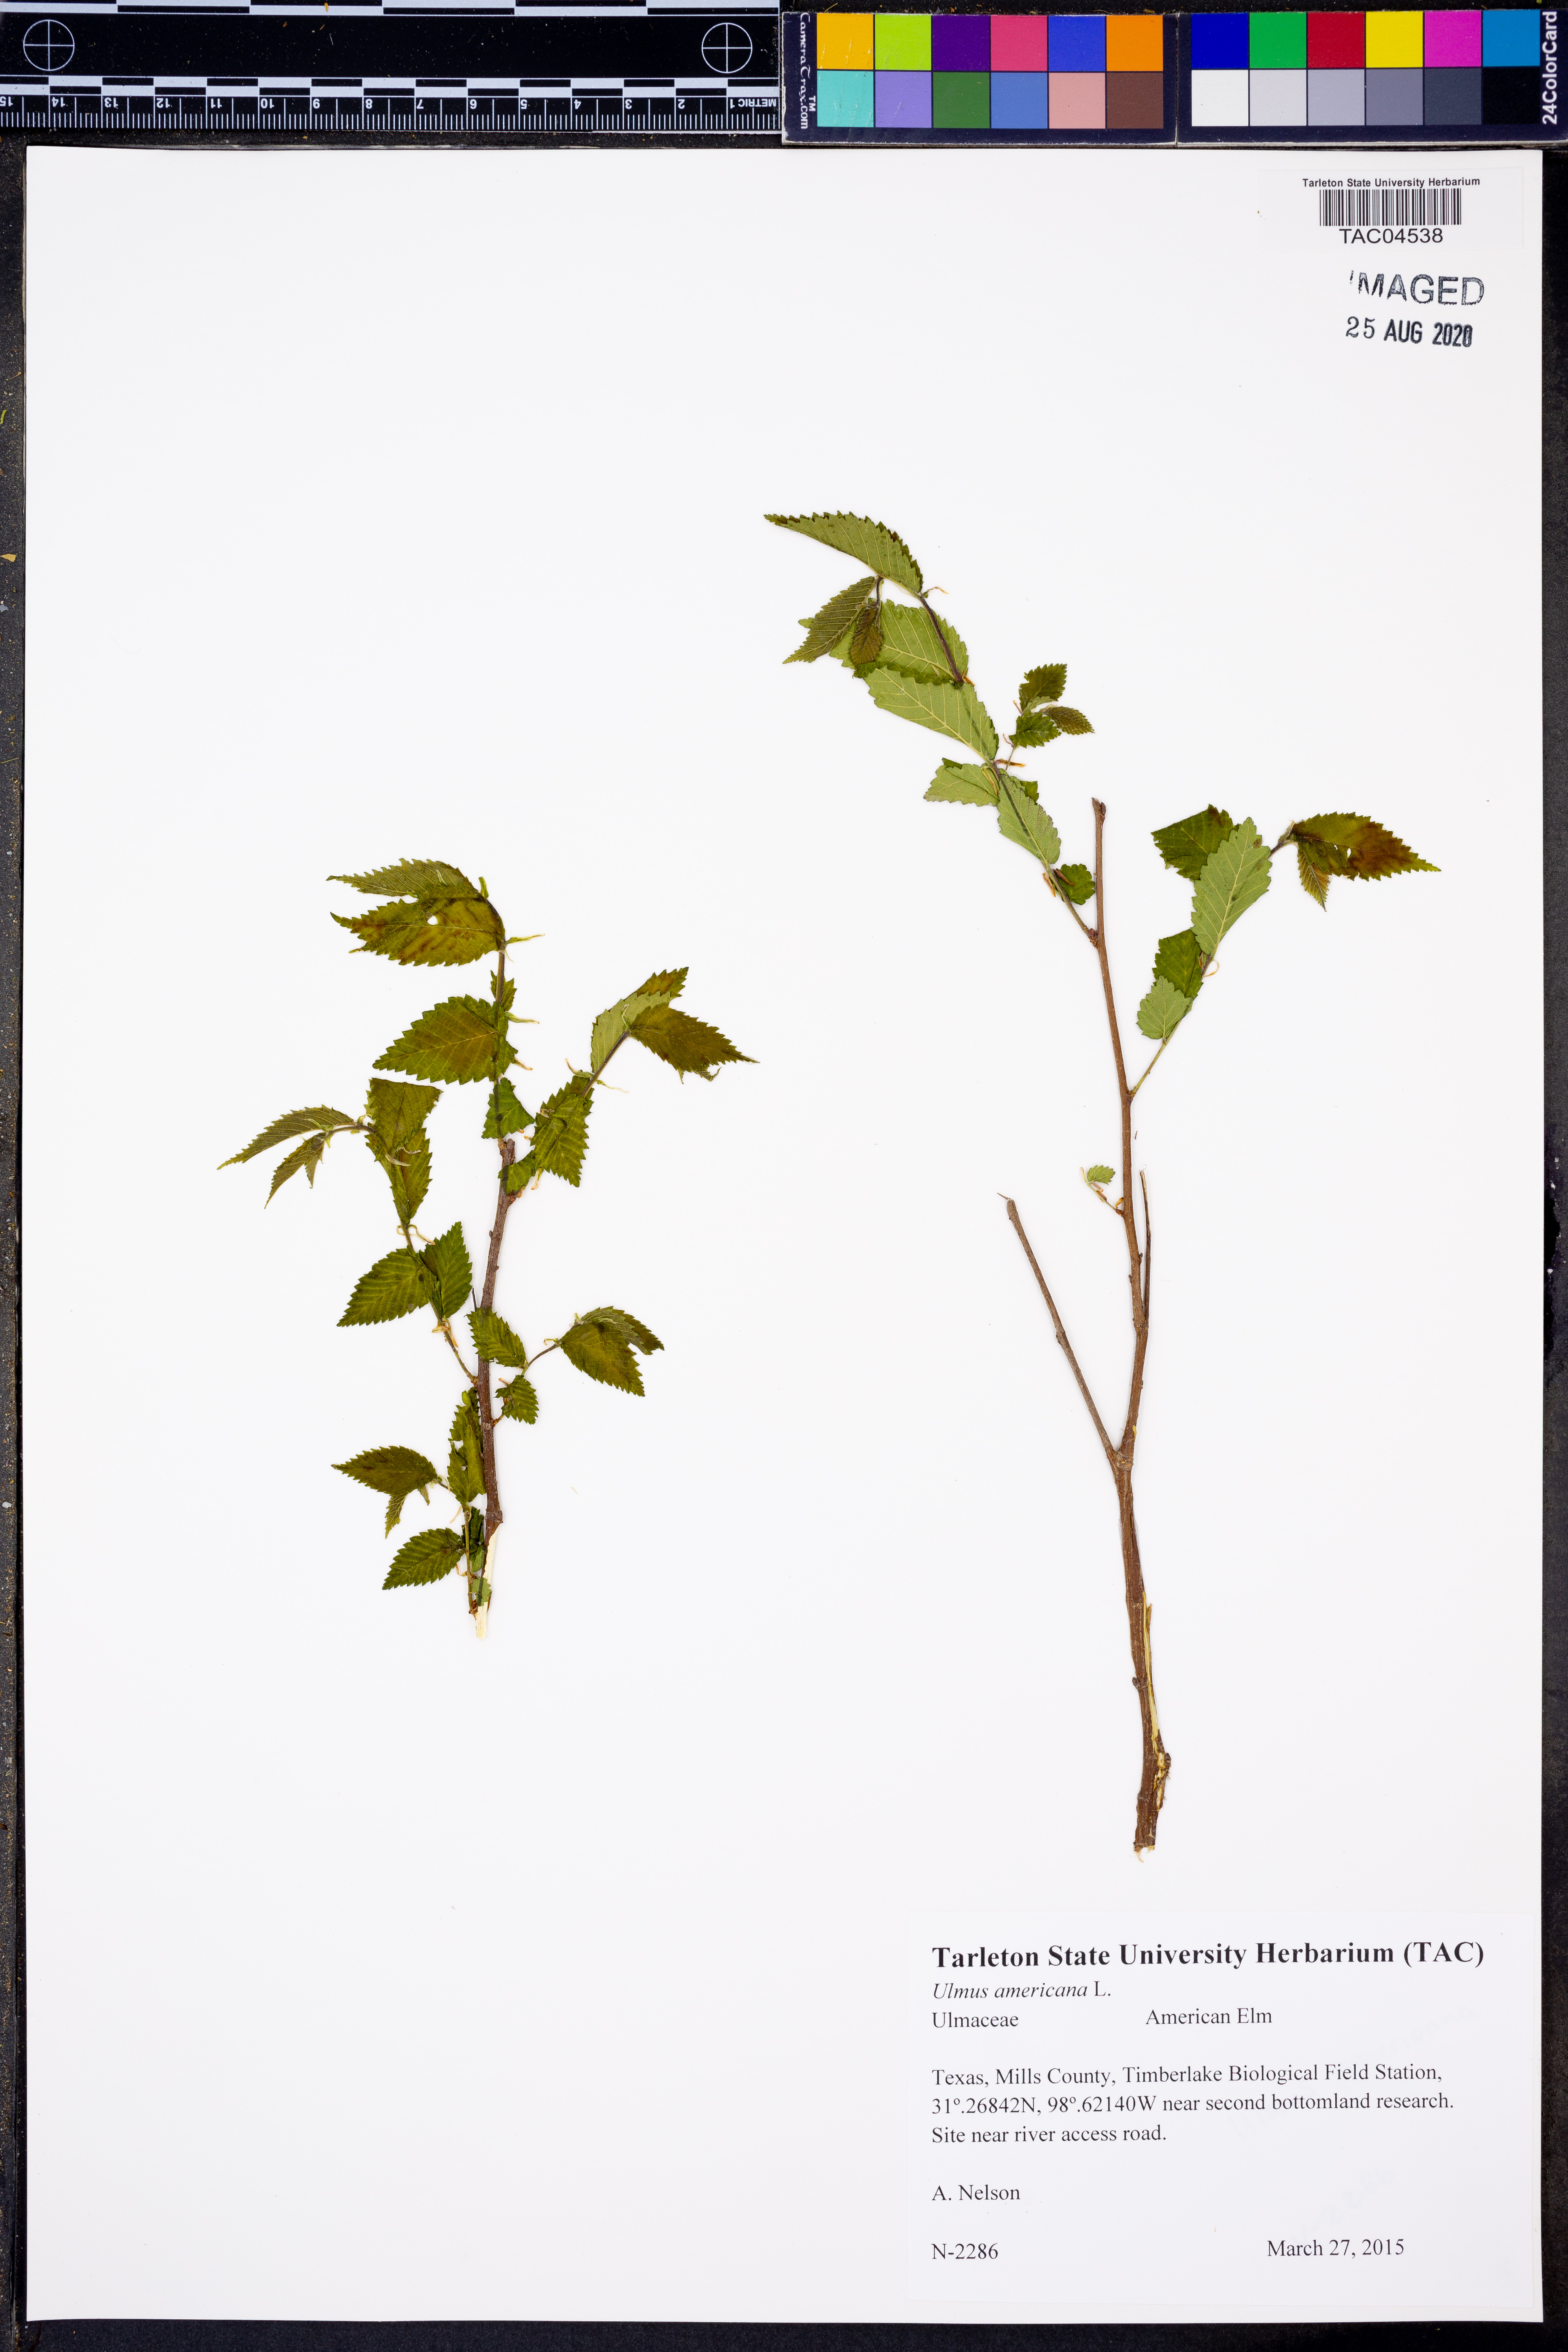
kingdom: Plantae
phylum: Tracheophyta
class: Magnoliopsida
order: Rosales
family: Ulmaceae
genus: Ulmus
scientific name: Ulmus americana
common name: American elm
